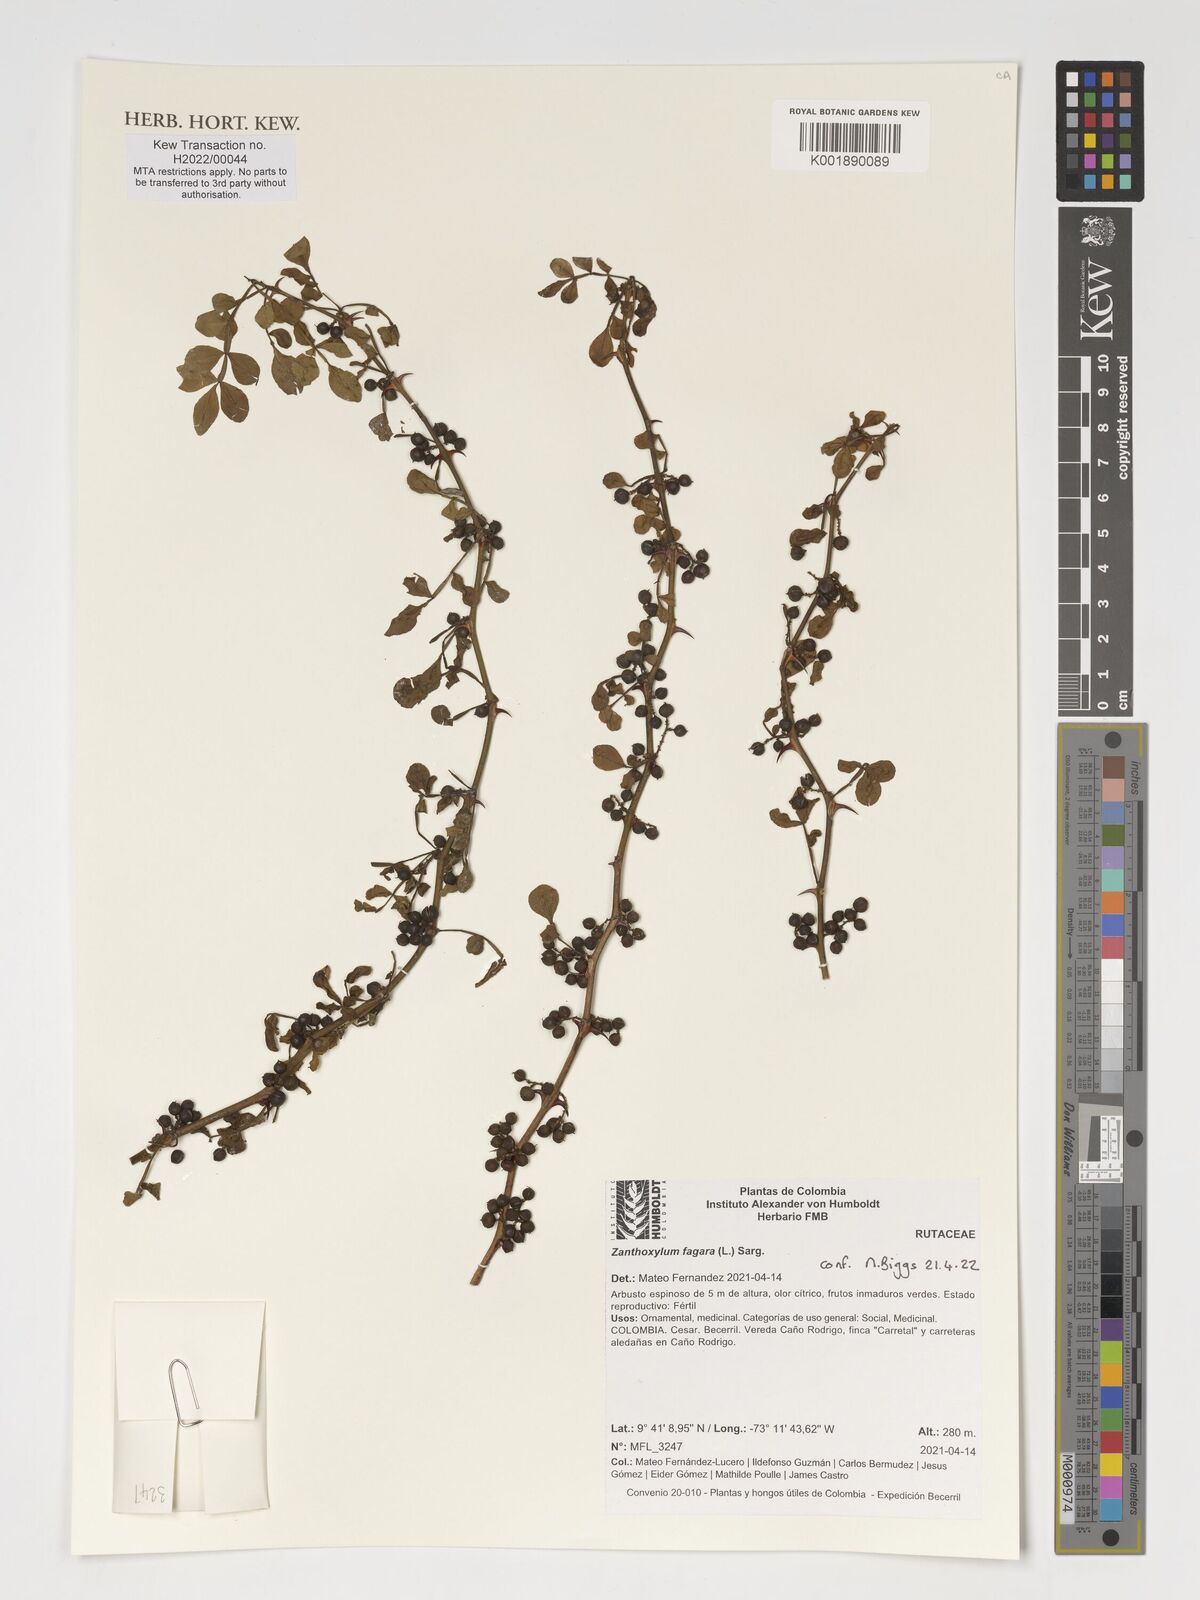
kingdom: Plantae
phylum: Tracheophyta
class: Magnoliopsida
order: Sapindales
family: Rutaceae
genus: Zanthoxylum
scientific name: Zanthoxylum fagara
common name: Lime prickly-ash
